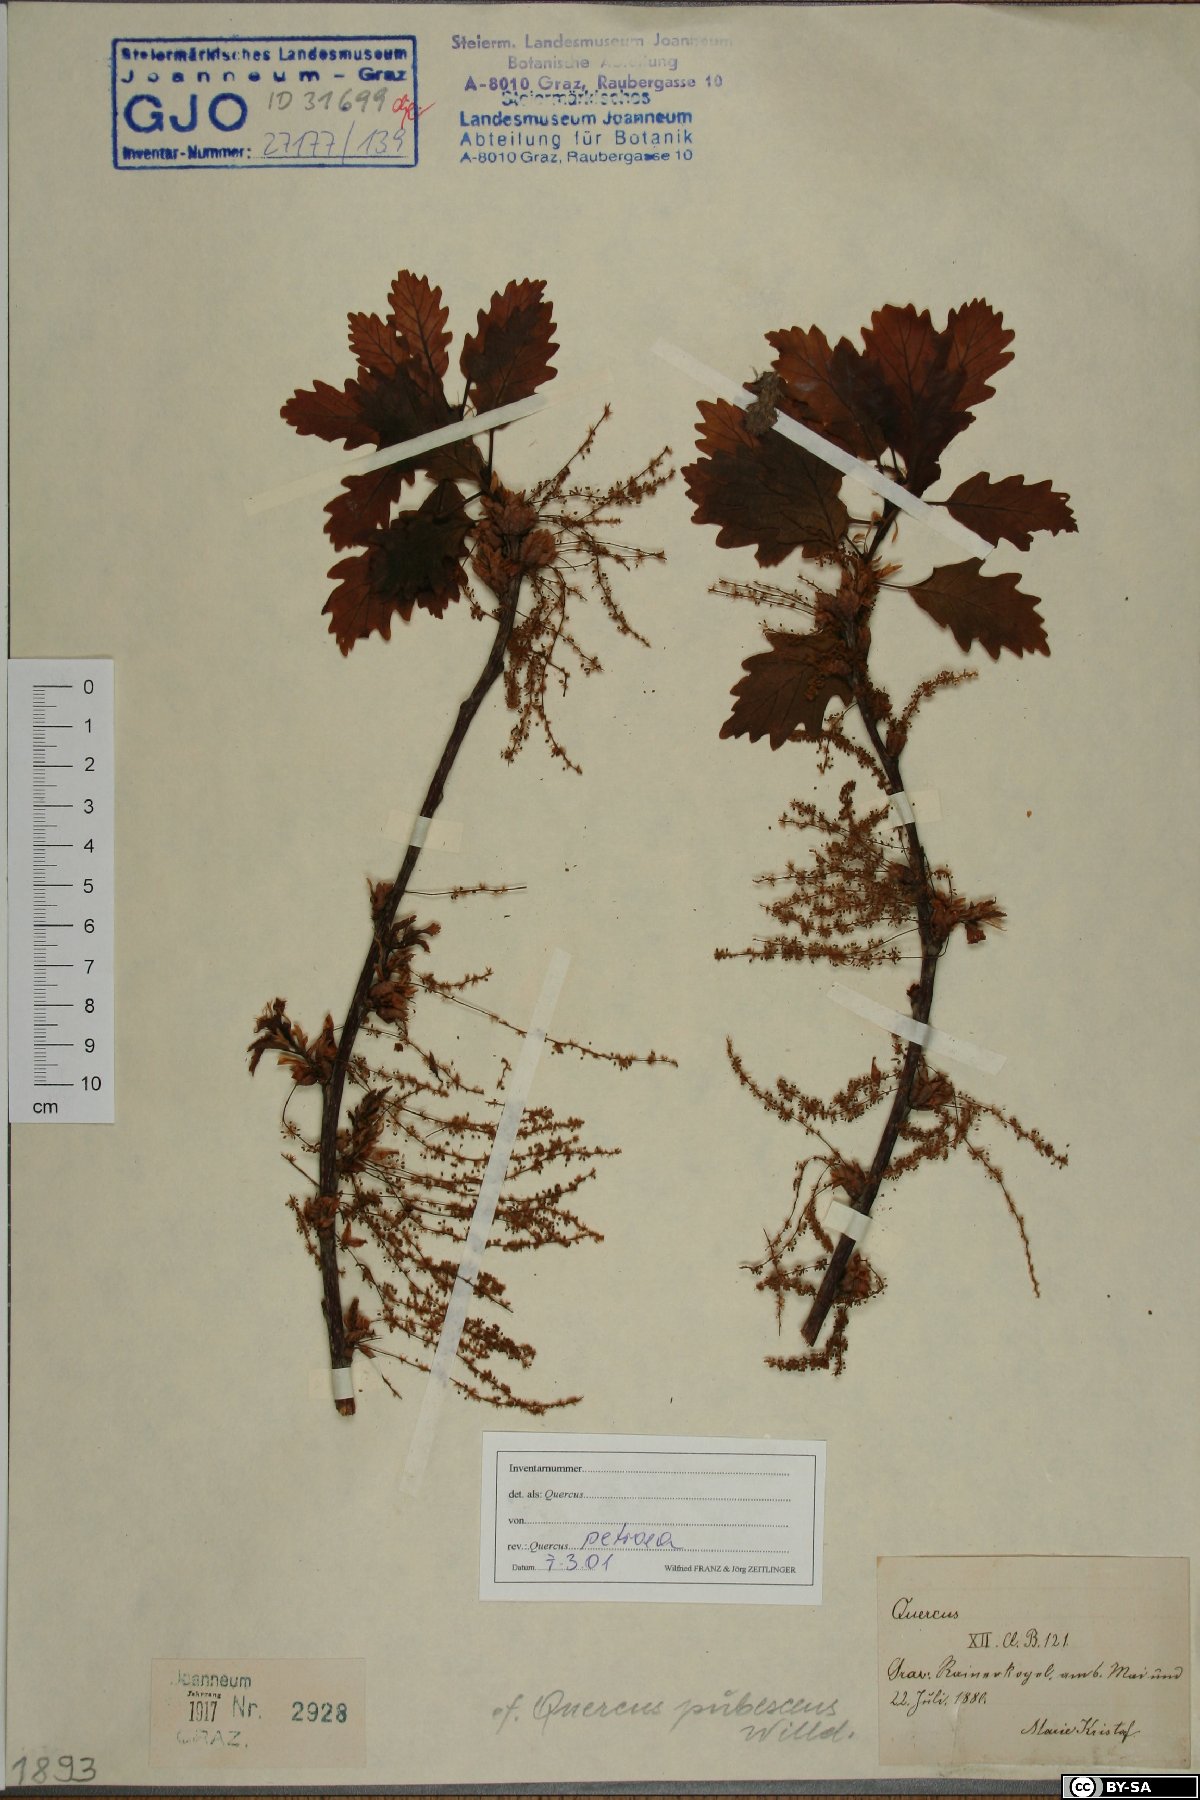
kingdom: Plantae
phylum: Tracheophyta
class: Magnoliopsida
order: Fagales
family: Fagaceae
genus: Quercus
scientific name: Quercus petraea
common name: Sessile oak
